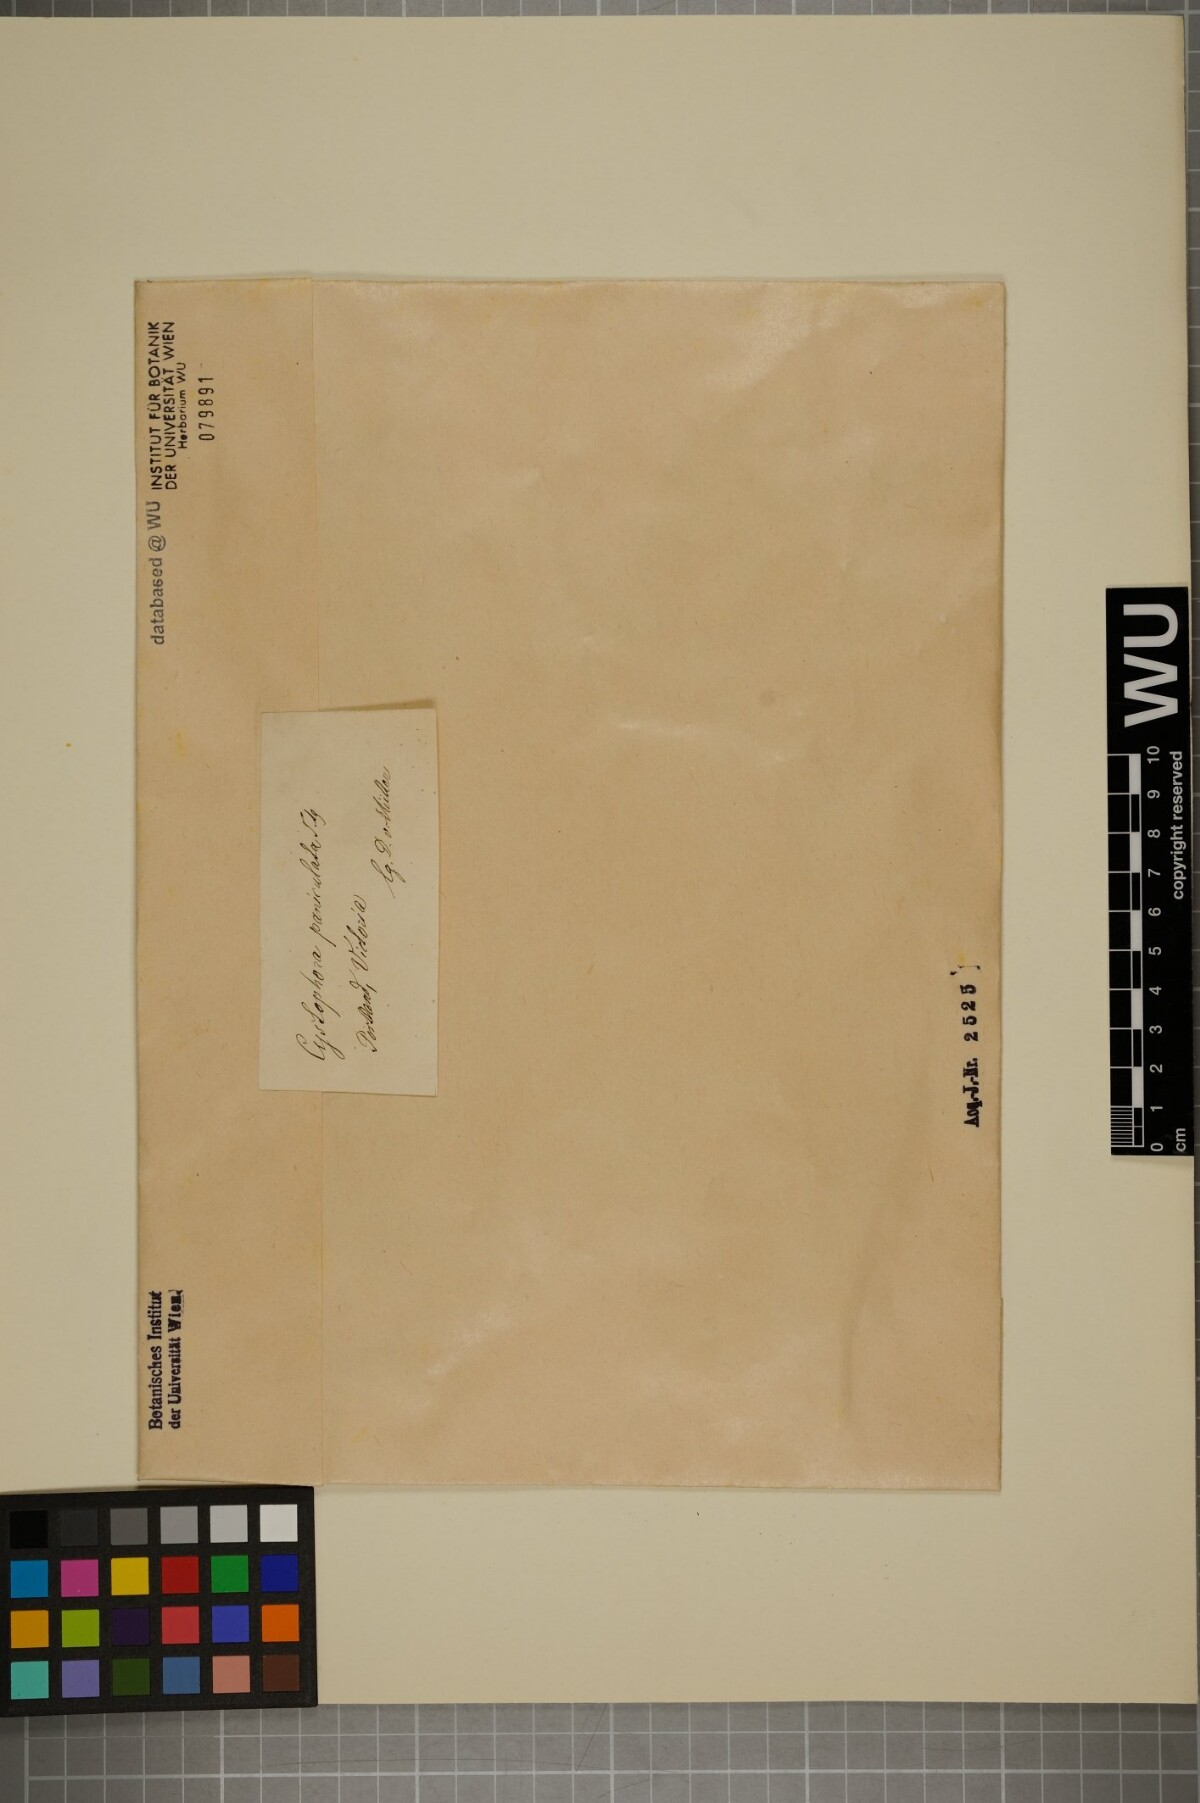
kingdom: Chromista
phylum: Ochrophyta
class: Phaeophyceae
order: Fucales
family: Sargassaceae
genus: Acrocarpia
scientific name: Acrocarpia paniculata
